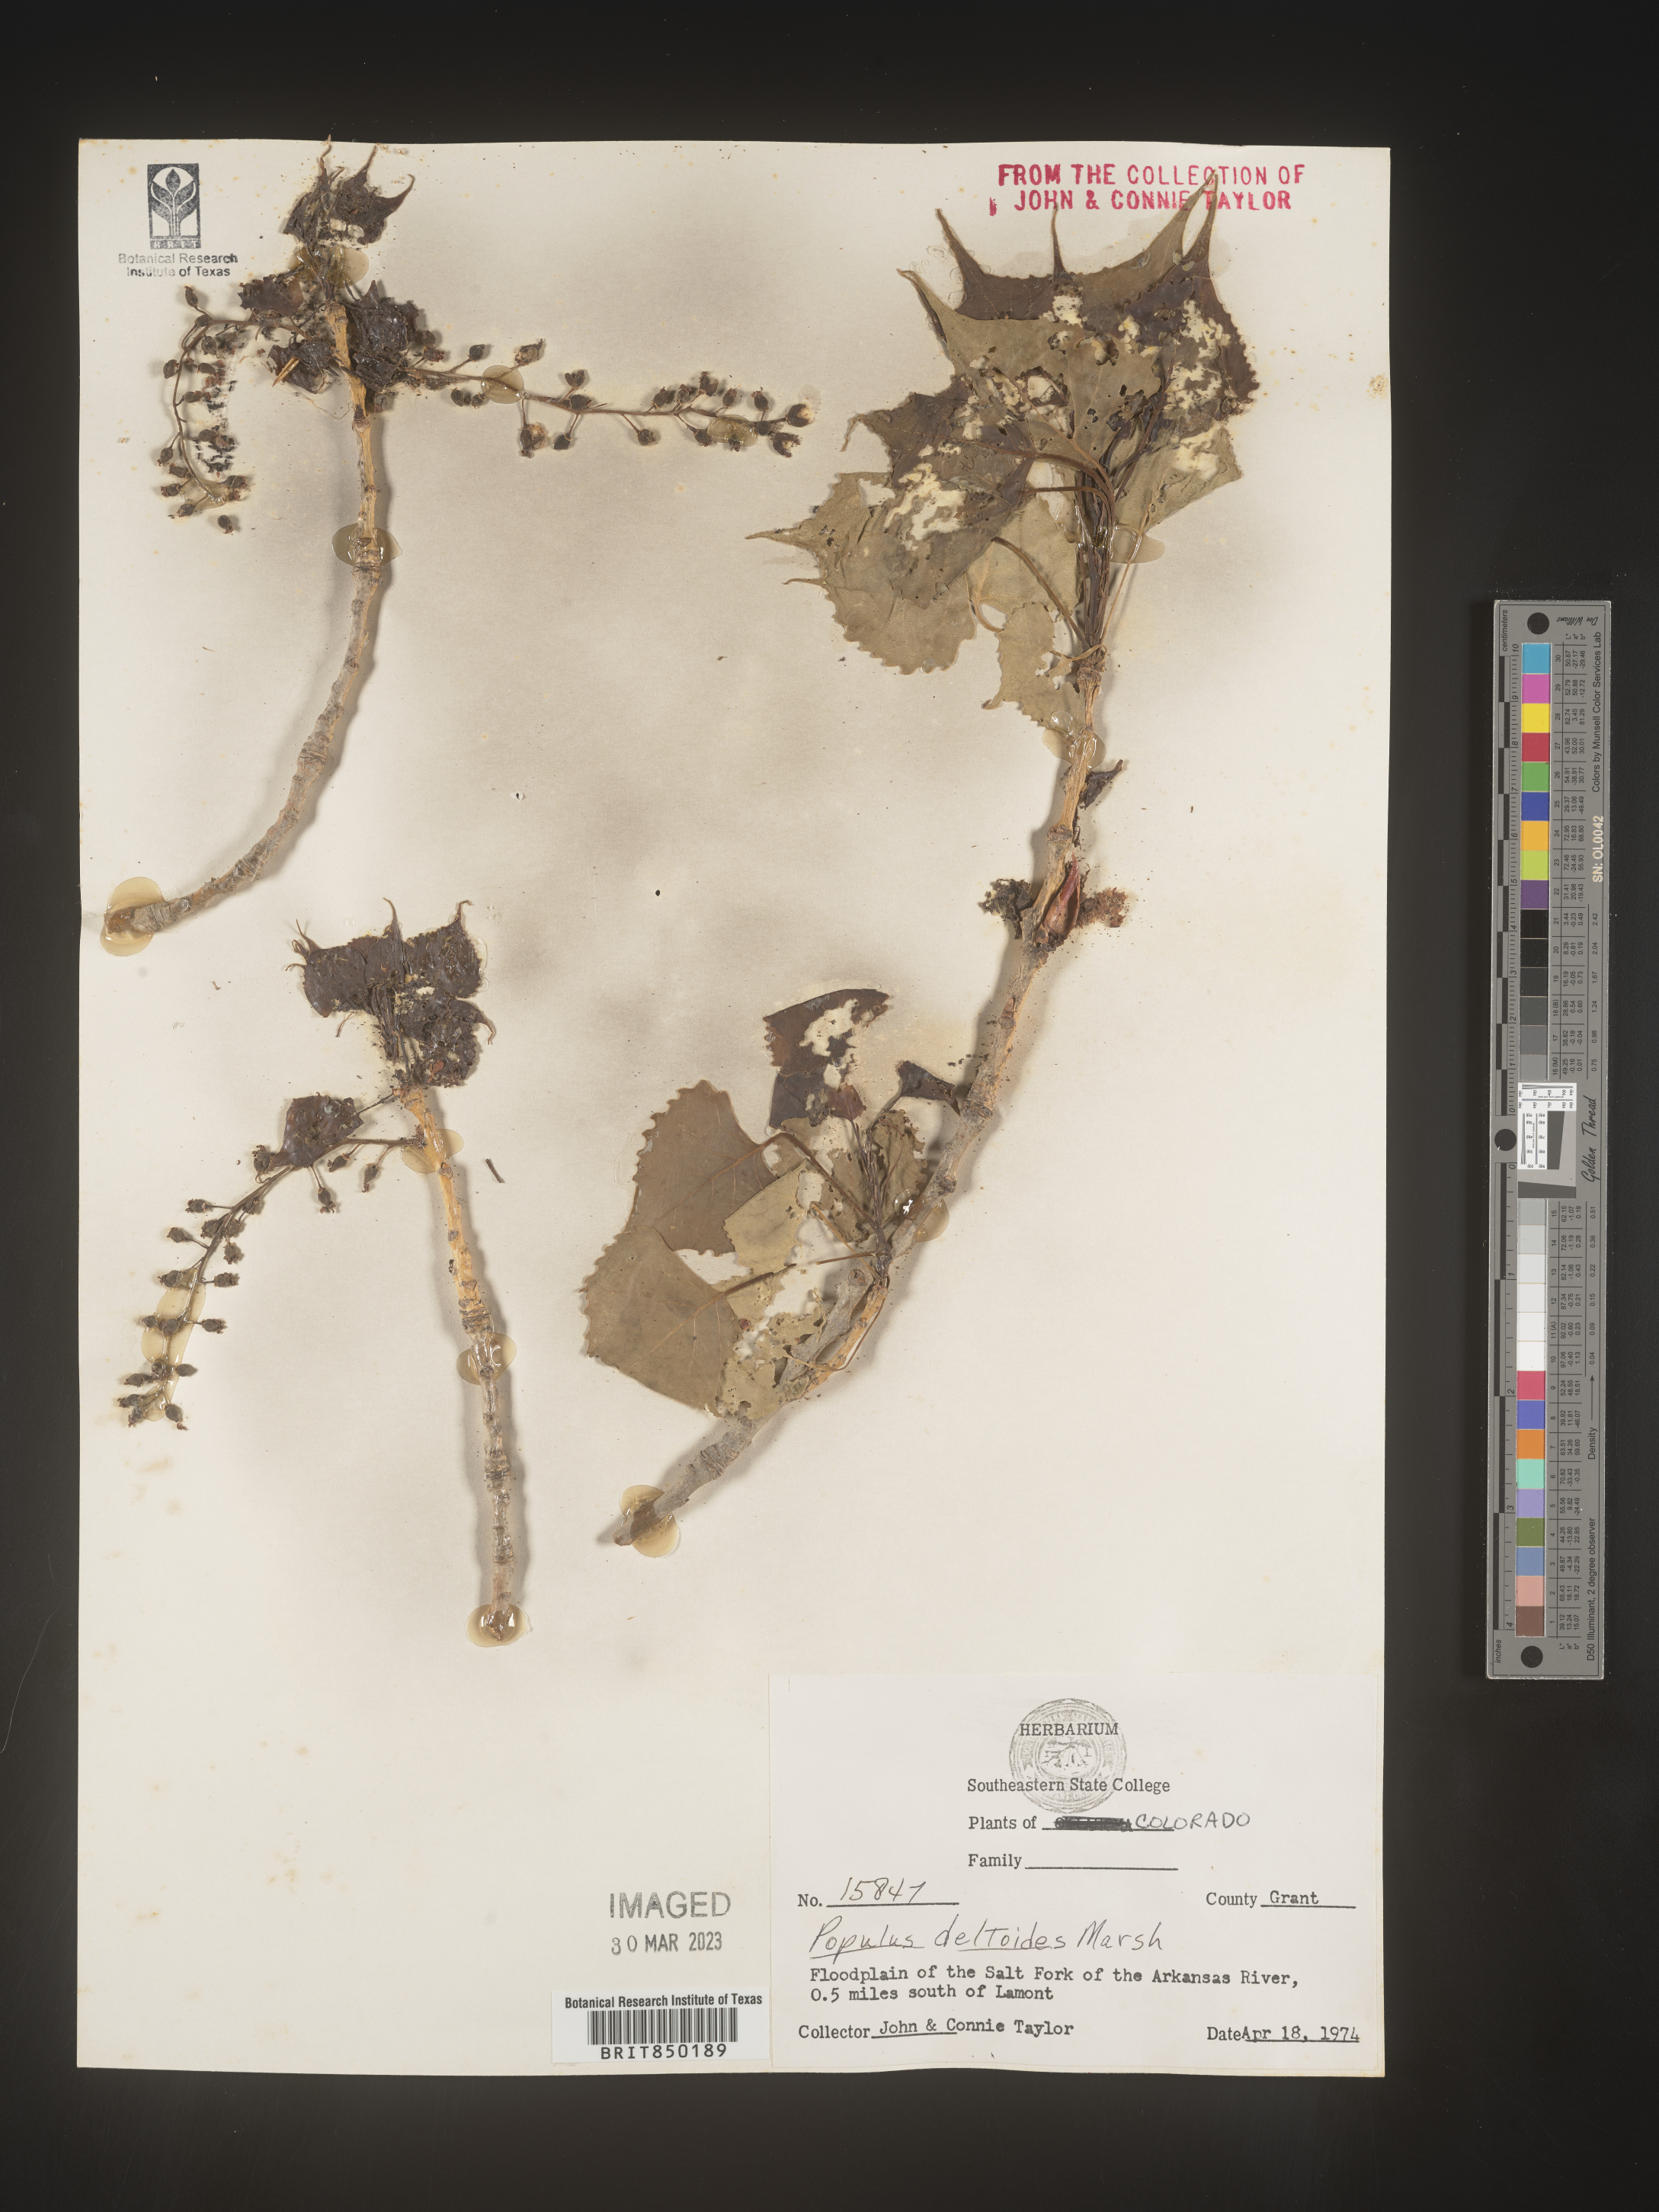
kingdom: Plantae
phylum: Tracheophyta
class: Magnoliopsida
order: Malpighiales
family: Salicaceae
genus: Populus
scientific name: Populus deltoides
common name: Eastern cottonwood
